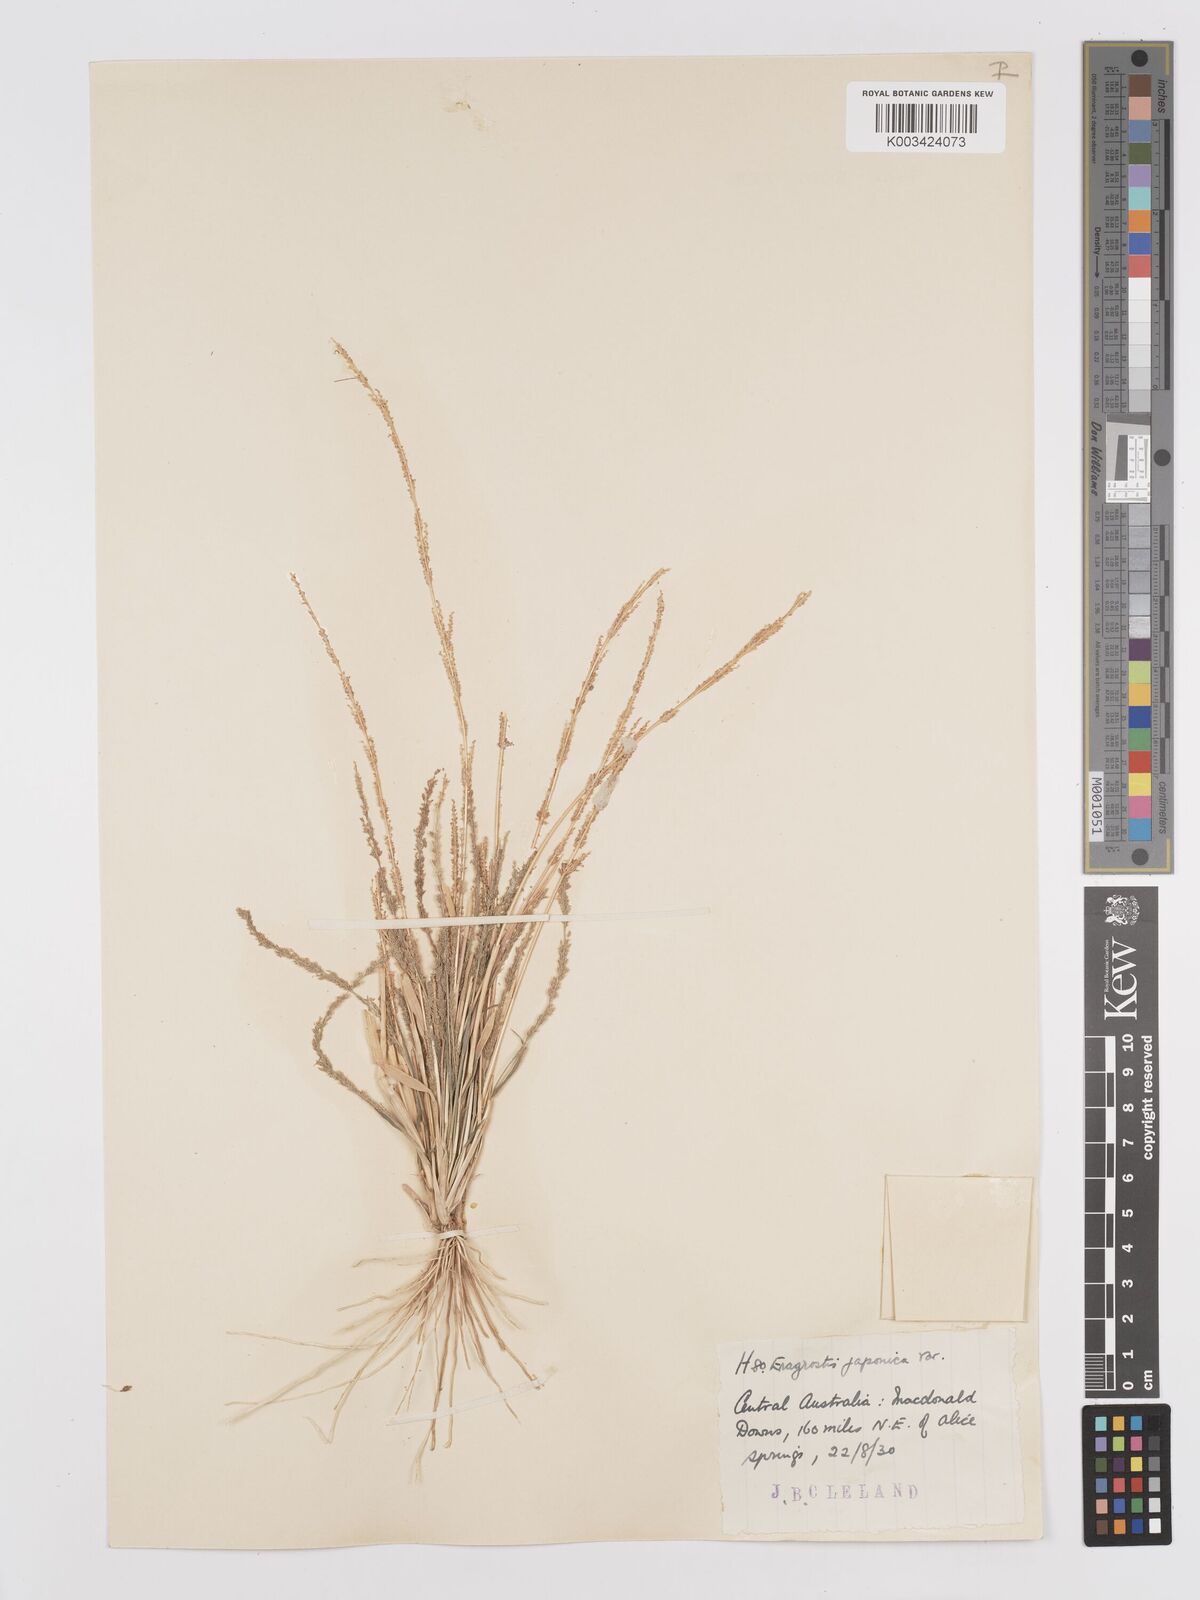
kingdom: Plantae
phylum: Tracheophyta
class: Liliopsida
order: Poales
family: Poaceae
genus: Eragrostis
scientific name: Eragrostis confertiflora
